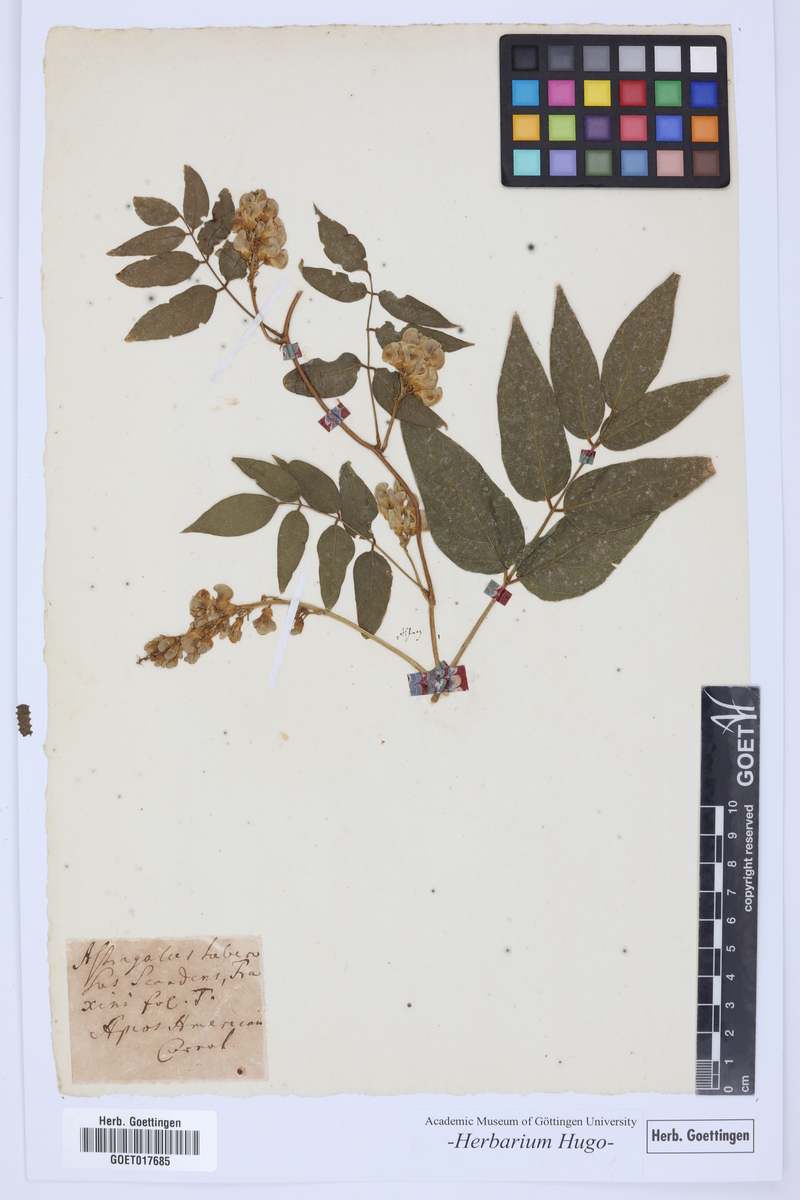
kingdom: Plantae
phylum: Tracheophyta
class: Magnoliopsida
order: Fabales
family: Fabaceae
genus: Apios
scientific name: Apios americana
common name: American potato-bean
